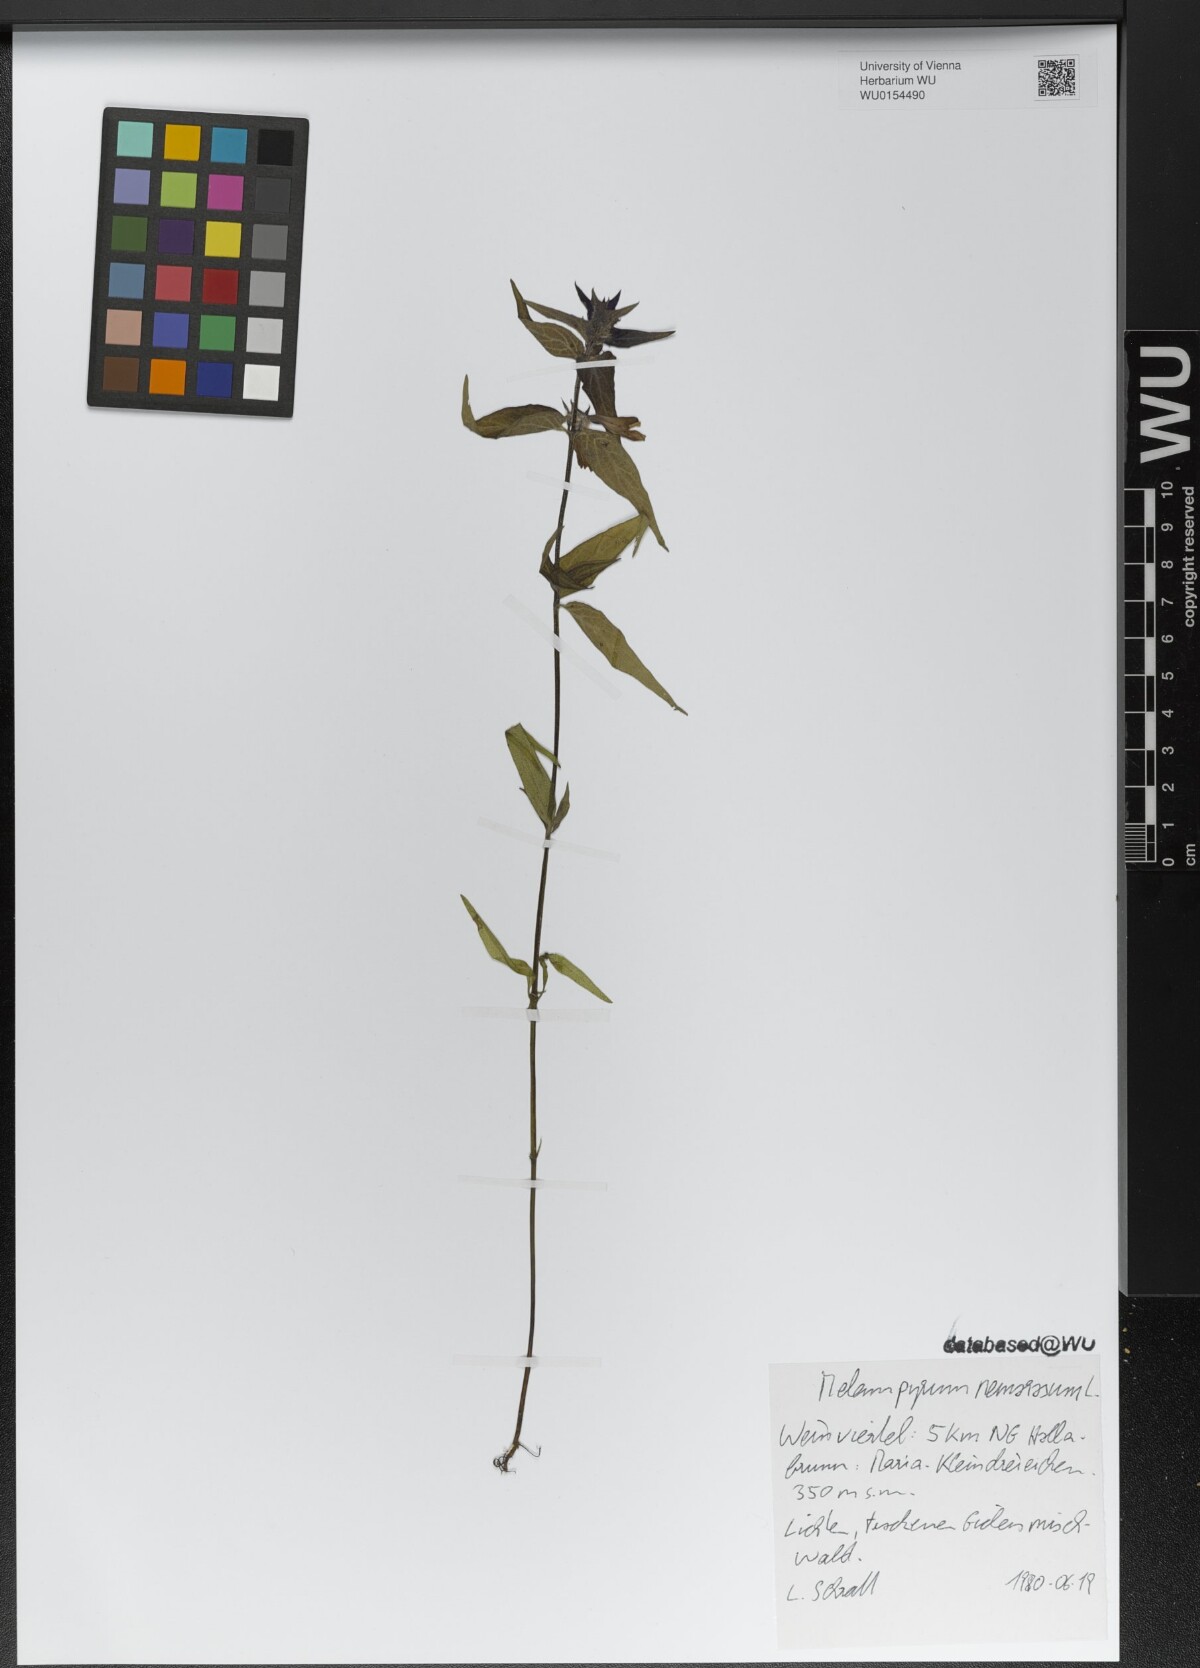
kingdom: Plantae
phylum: Tracheophyta
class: Magnoliopsida
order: Lamiales
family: Orobanchaceae
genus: Melampyrum
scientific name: Melampyrum nemorosum
